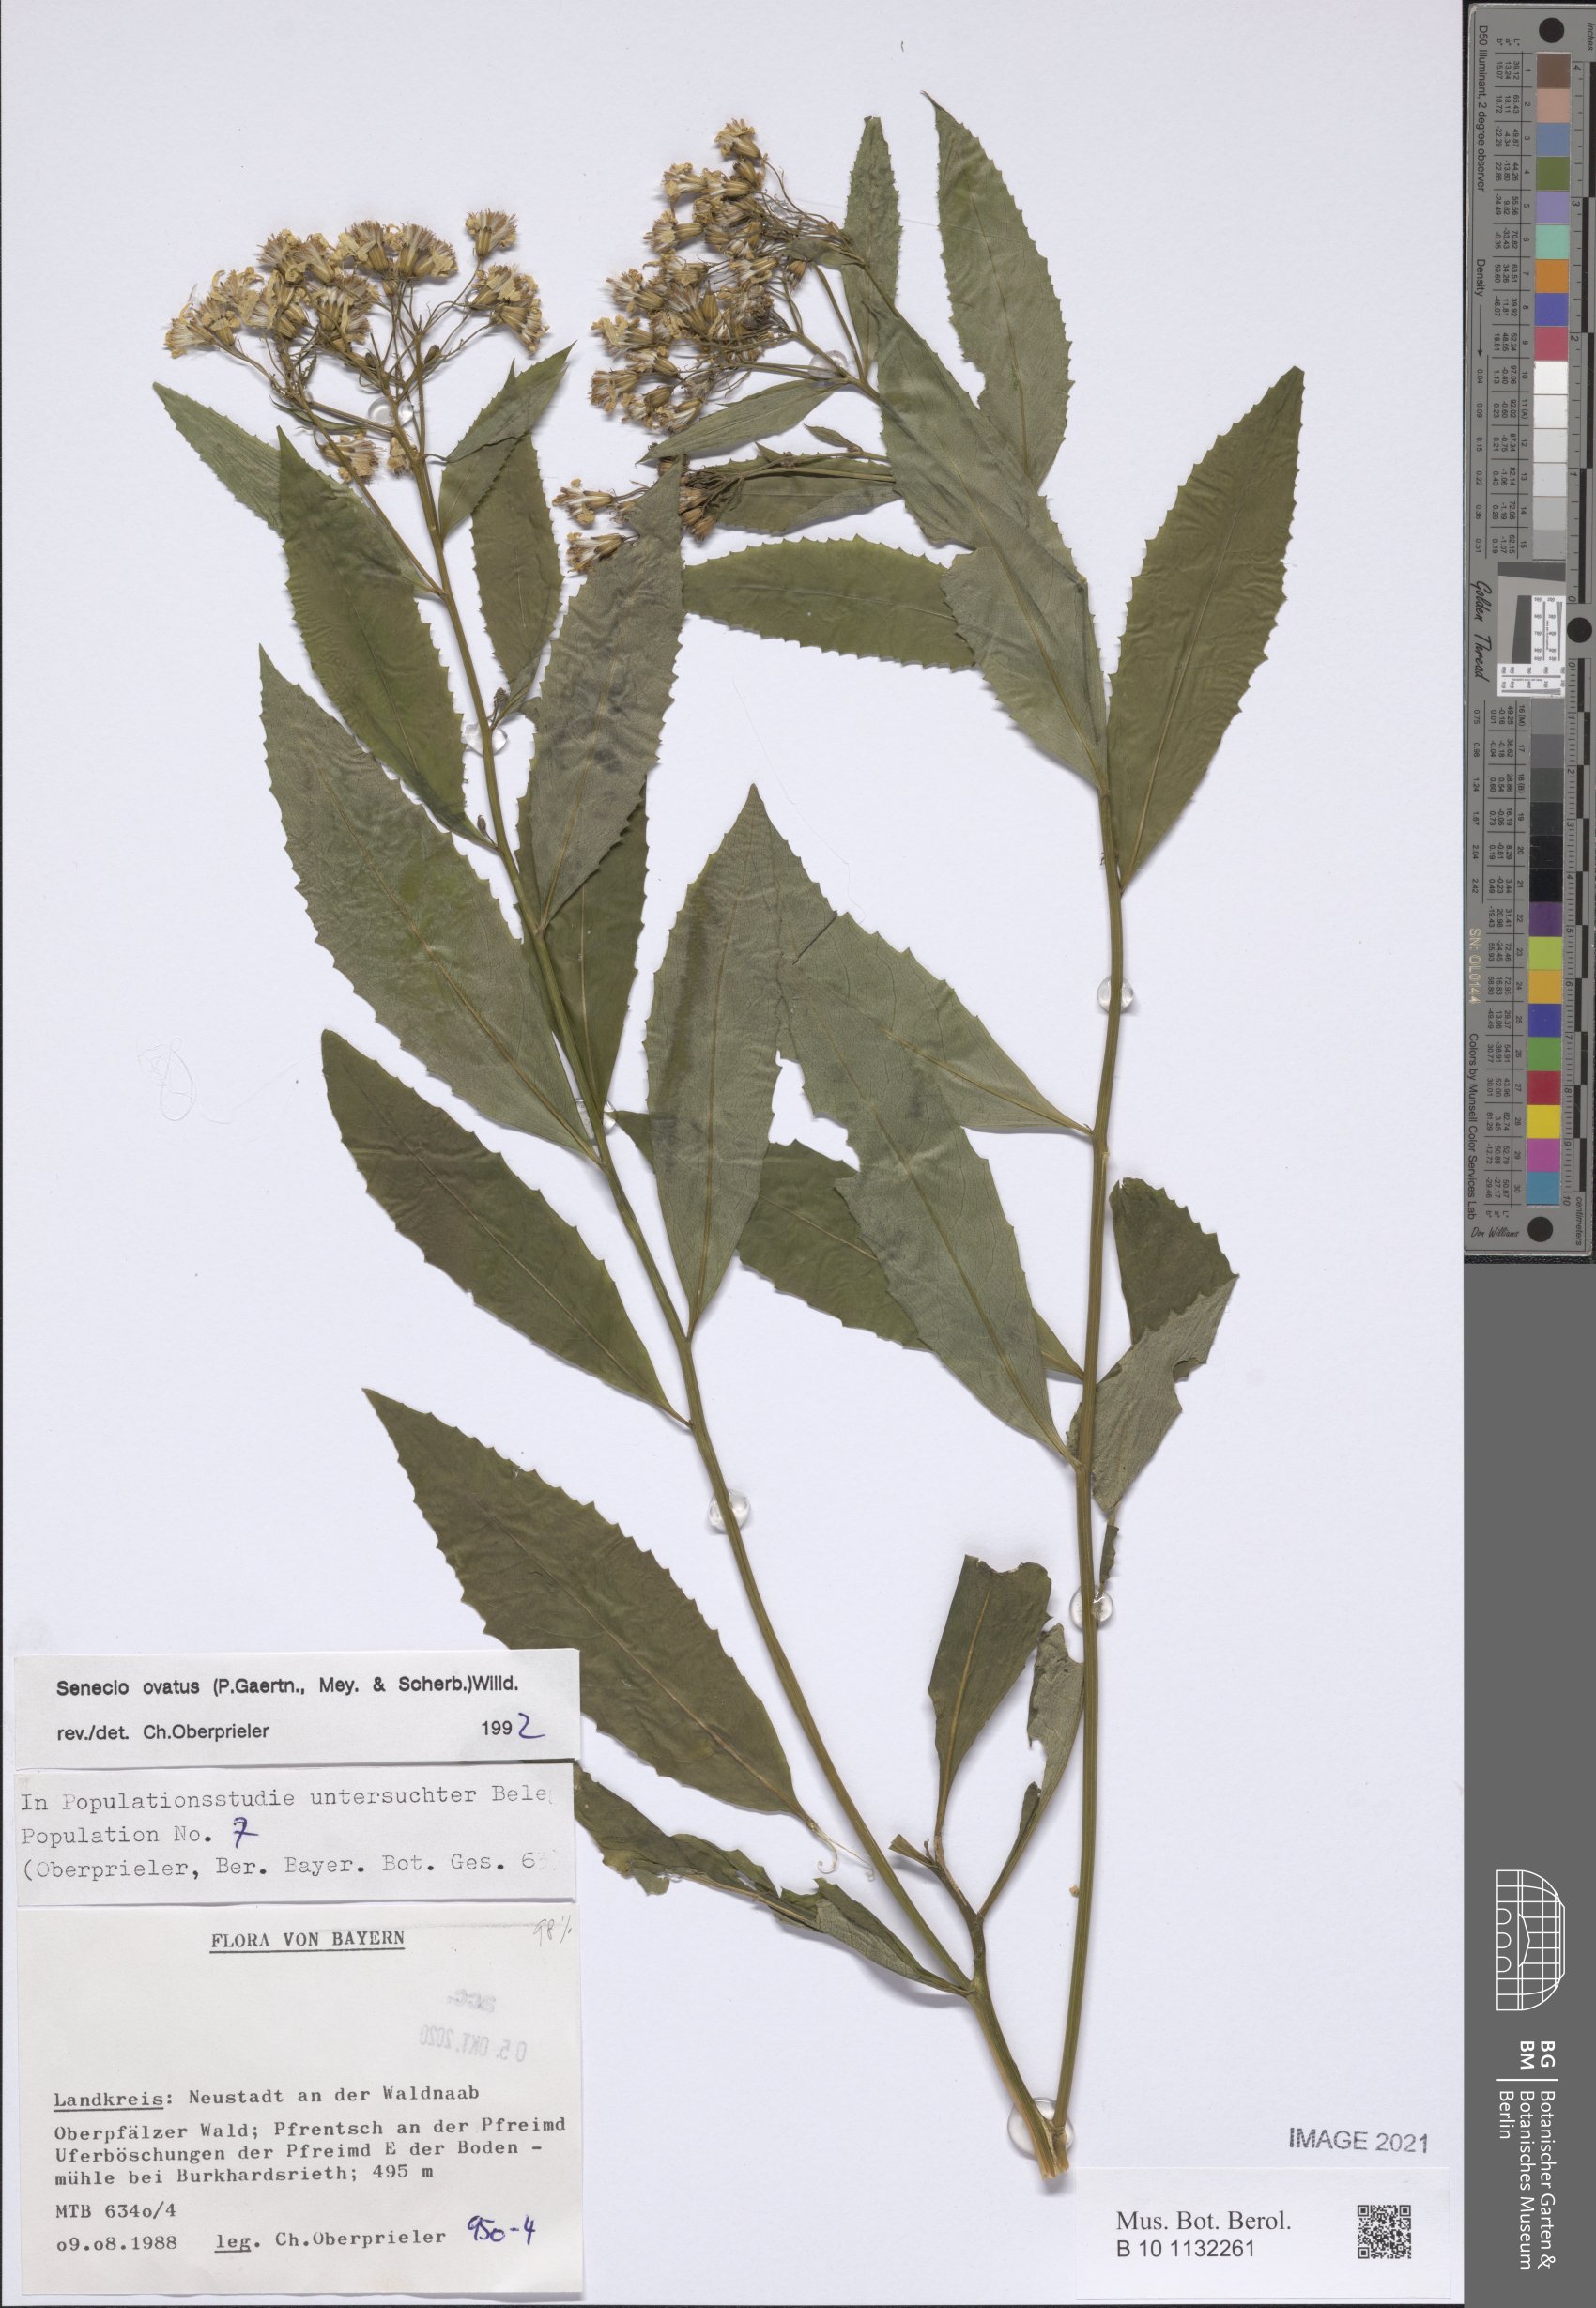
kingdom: Plantae
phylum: Tracheophyta
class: Magnoliopsida
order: Asterales
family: Asteraceae
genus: Senecio
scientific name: Senecio ovatus
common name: Wood ragwort
